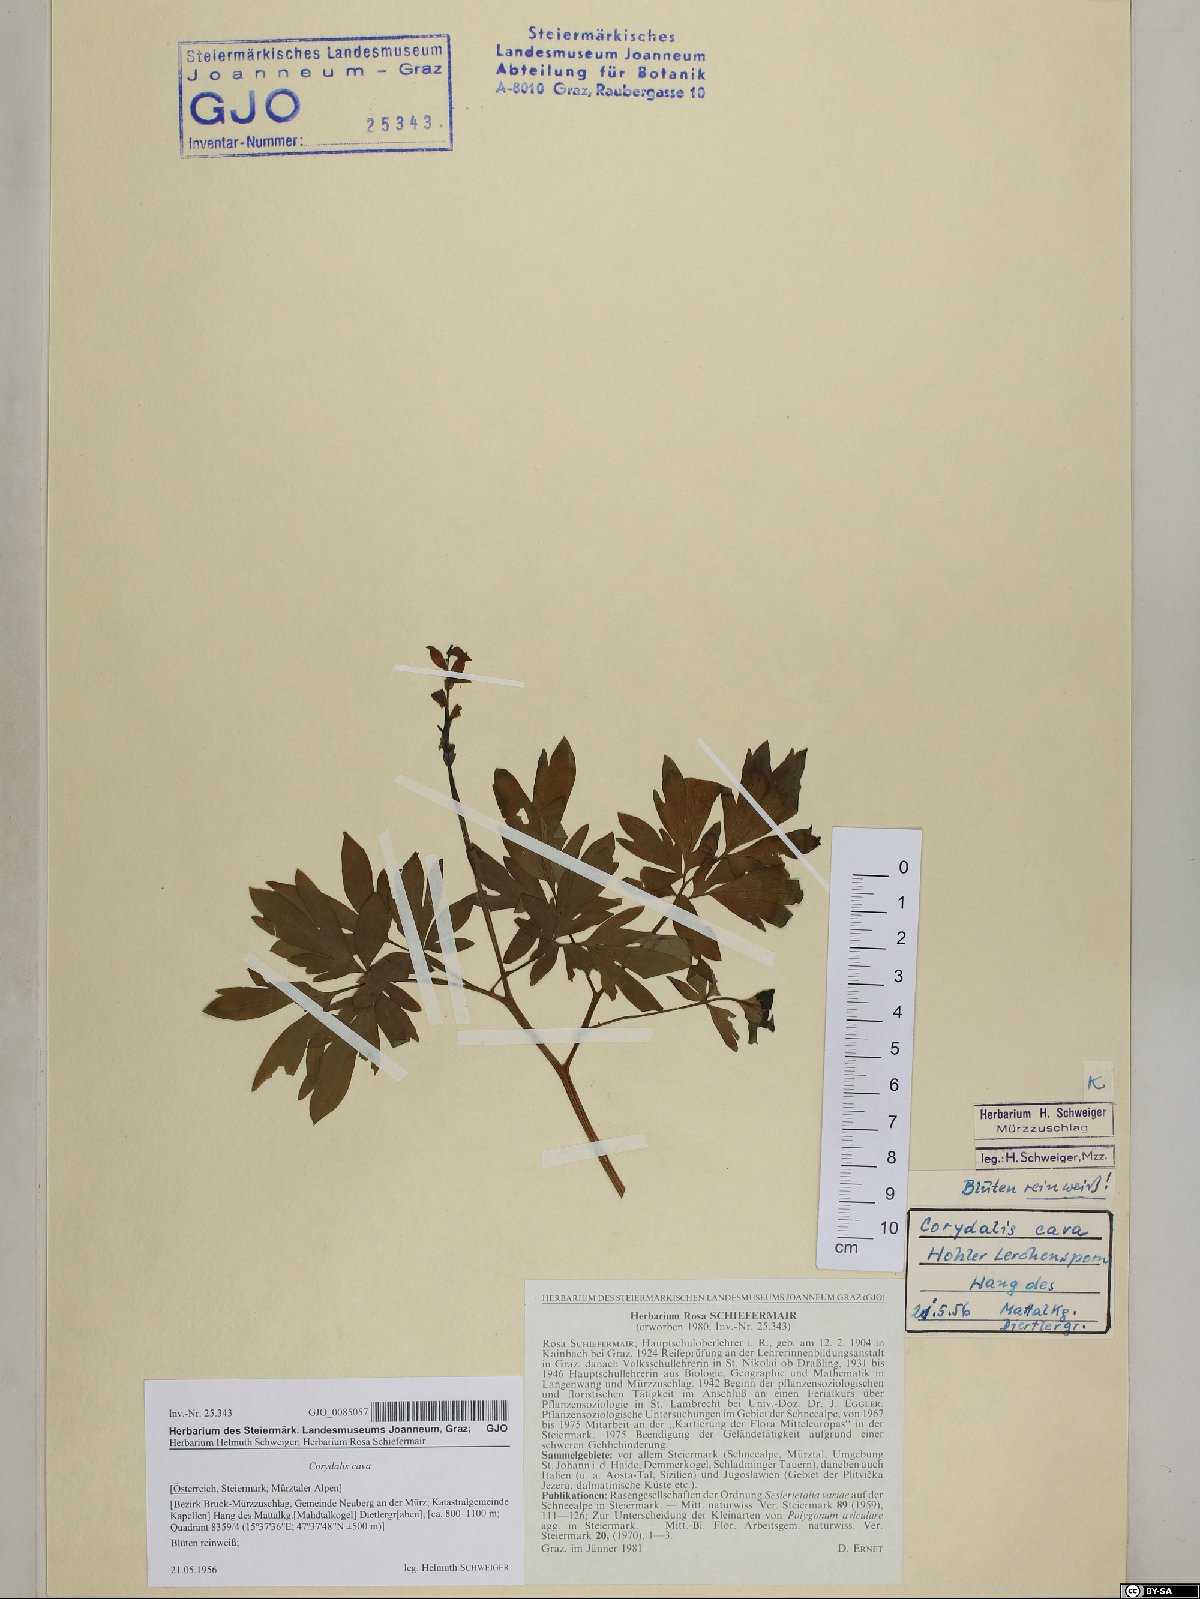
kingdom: Plantae
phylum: Tracheophyta
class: Magnoliopsida
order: Ranunculales
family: Papaveraceae
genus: Corydalis
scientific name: Corydalis cava
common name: Hollowroot
